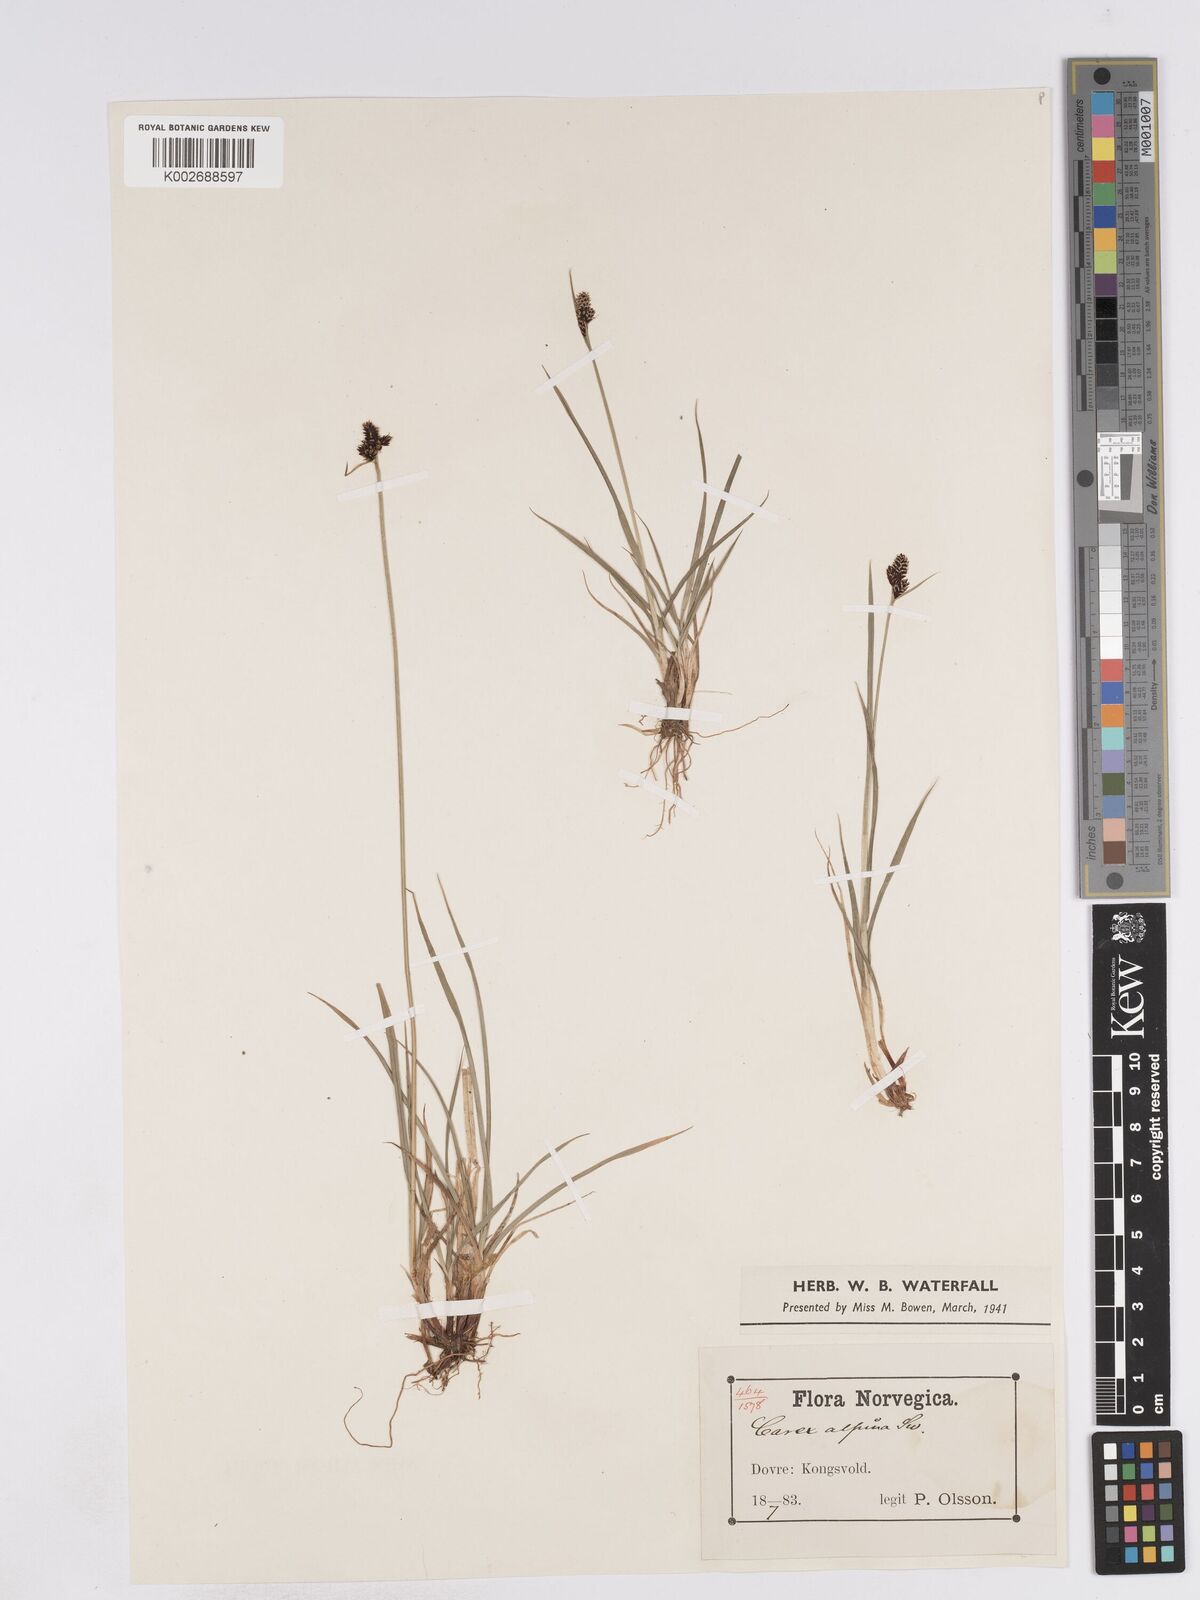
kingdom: Plantae
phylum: Tracheophyta
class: Liliopsida
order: Poales
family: Cyperaceae
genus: Carex
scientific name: Carex norvegica
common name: Close-headed alpine-sedge
